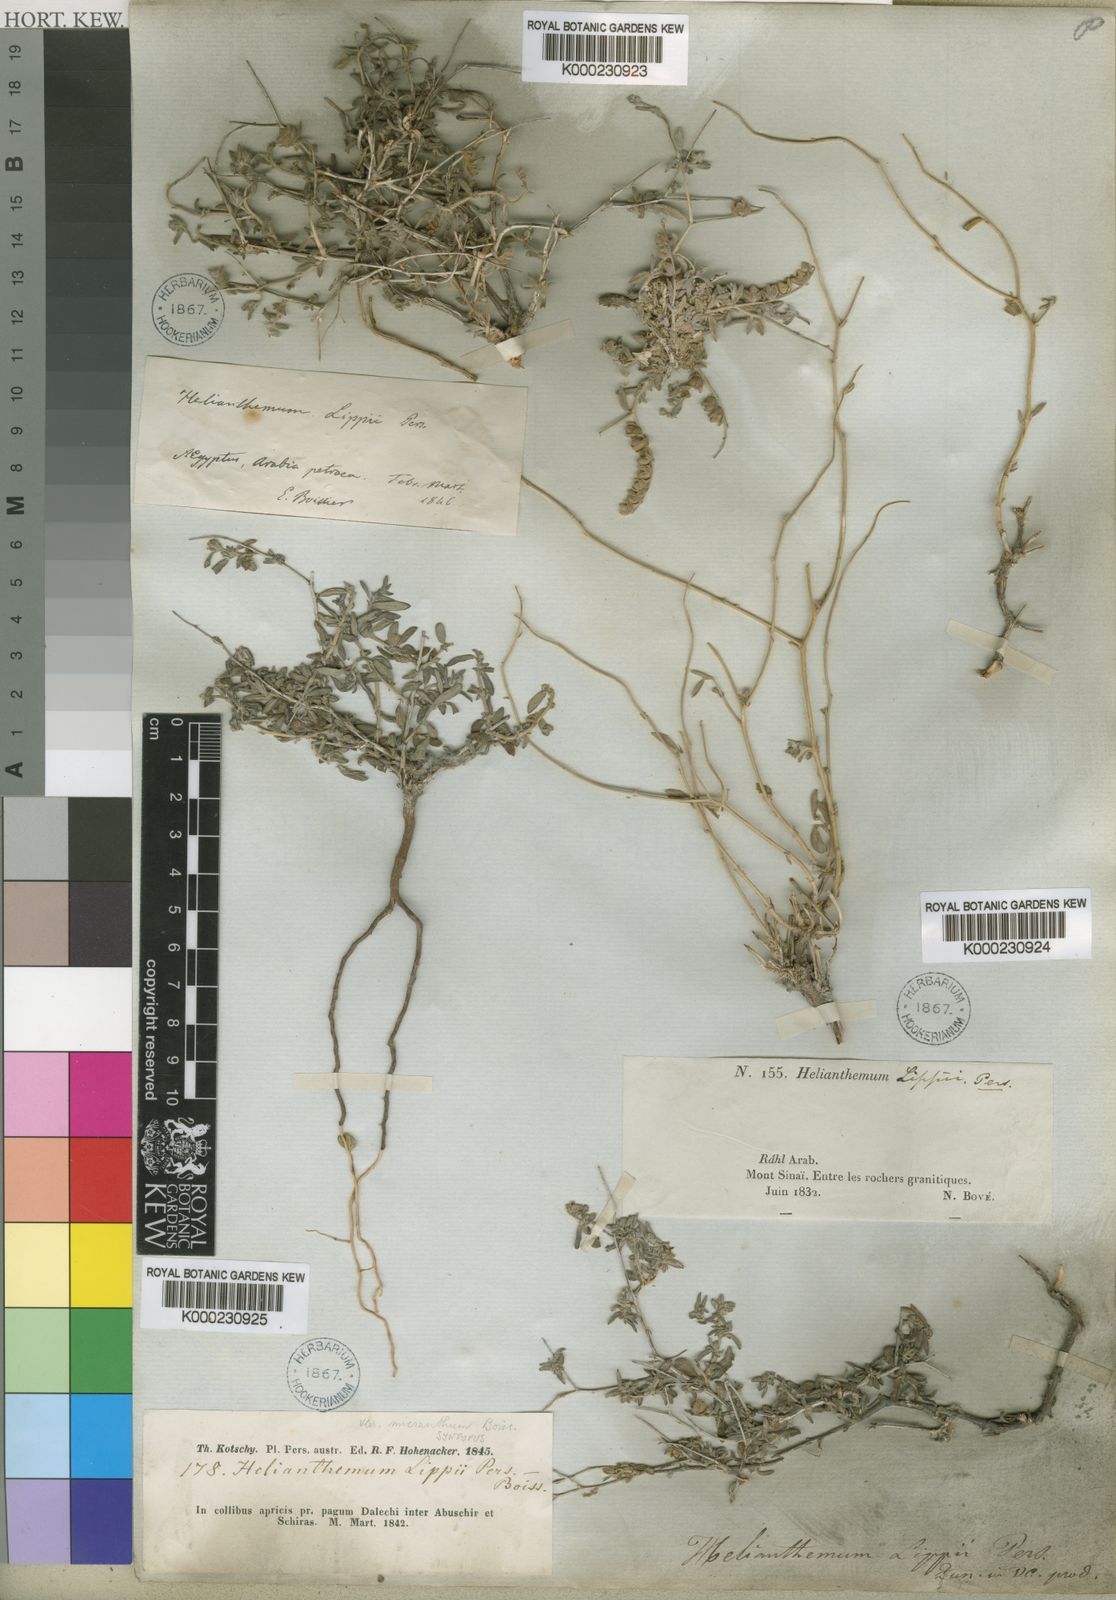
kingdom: Plantae
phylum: Tracheophyta
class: Magnoliopsida
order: Malvales
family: Cistaceae
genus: Helianthemum
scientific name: Helianthemum
